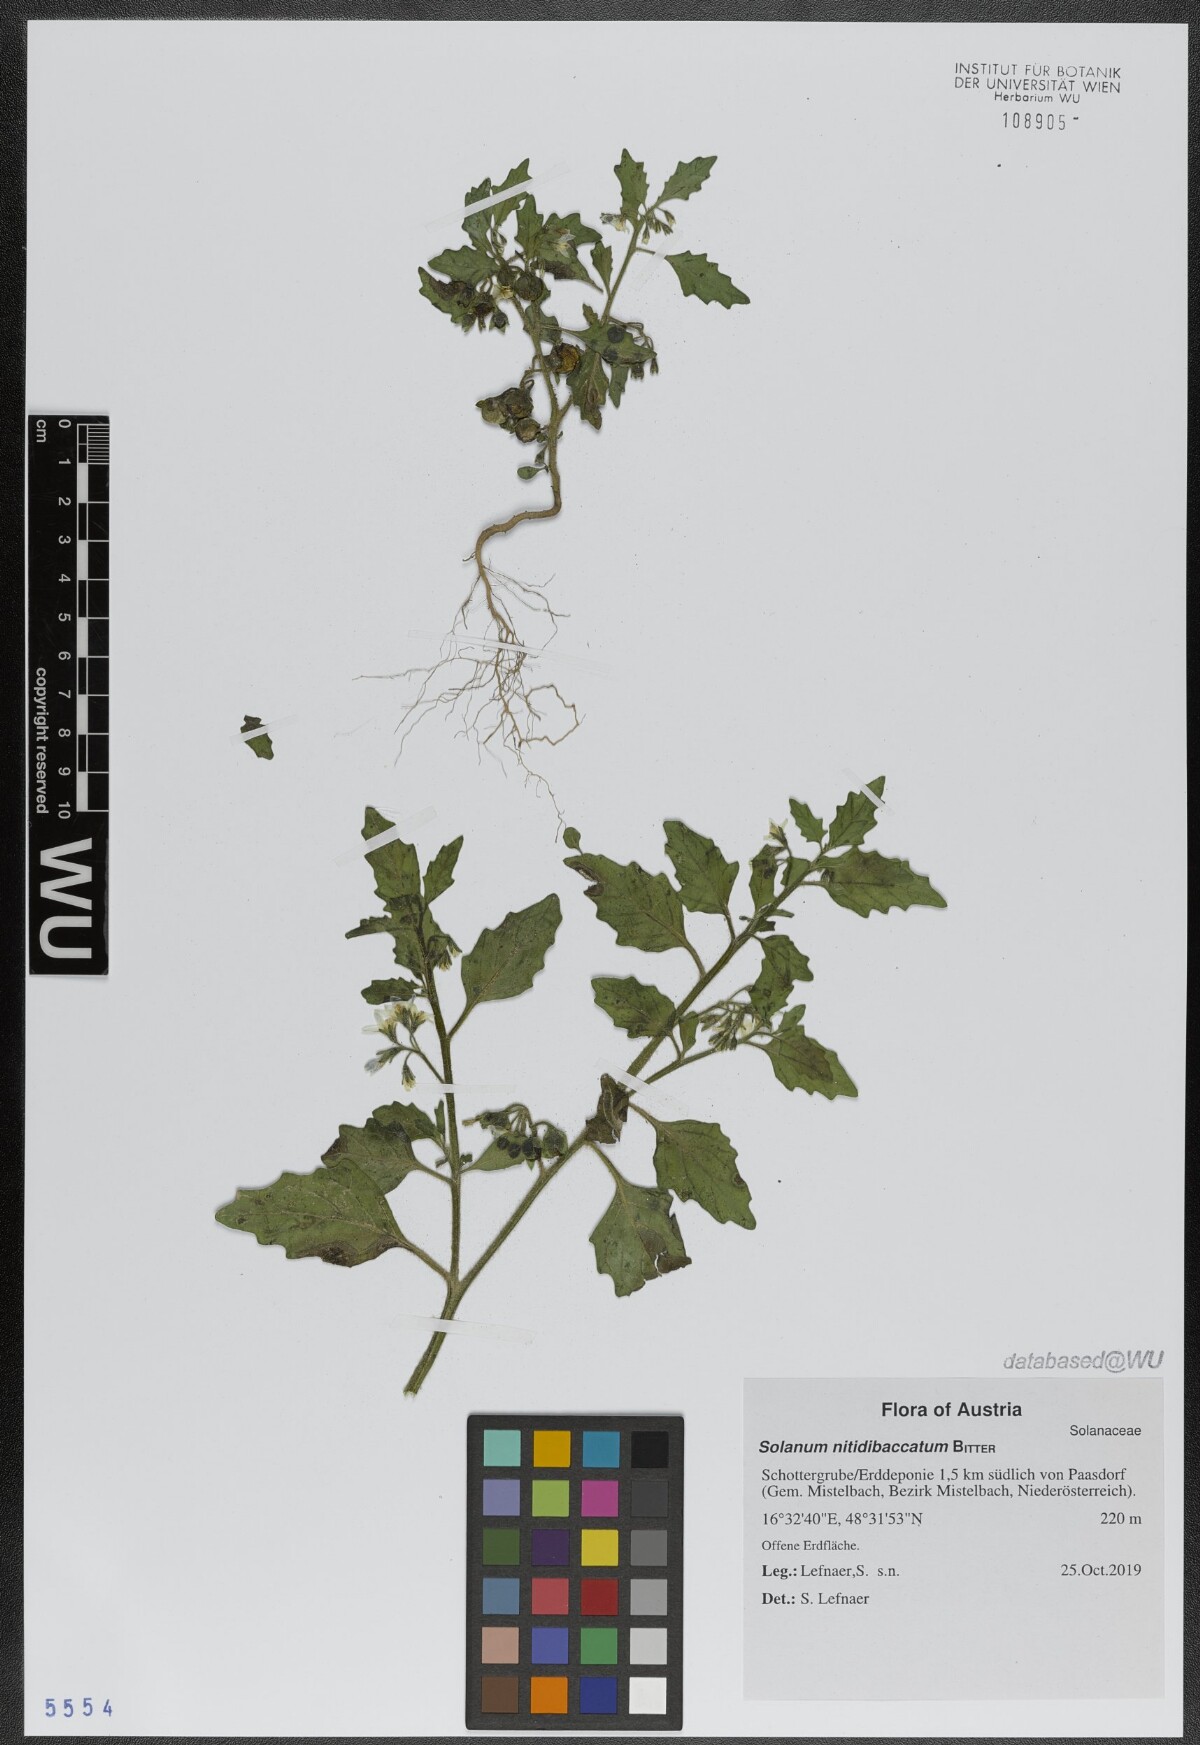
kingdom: Plantae
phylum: Tracheophyta
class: Magnoliopsida
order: Solanales
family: Solanaceae
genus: Solanum
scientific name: Solanum nitidibaccatum
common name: Hairy nightshade
